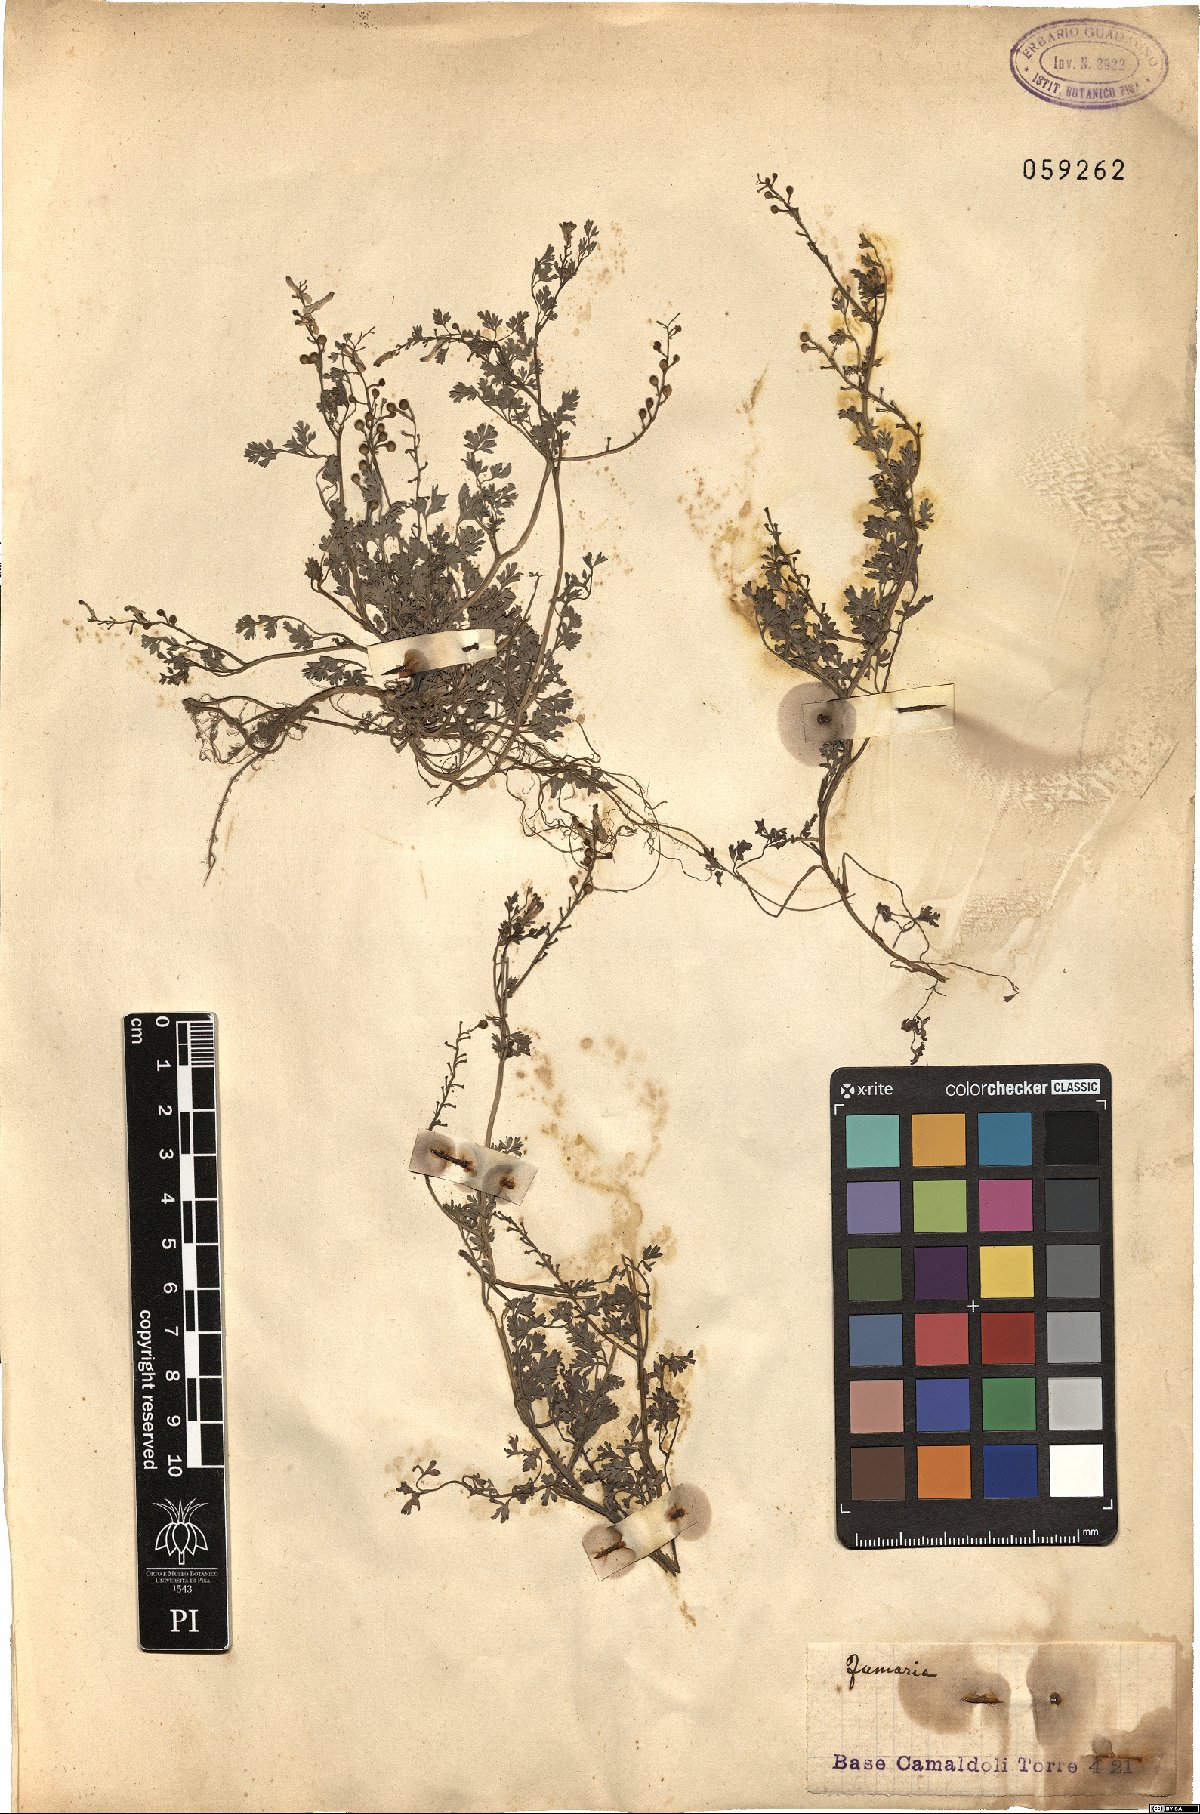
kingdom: Plantae
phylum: Tracheophyta
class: Magnoliopsida
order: Ranunculales
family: Papaveraceae
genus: Fumaria
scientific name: Fumaria
